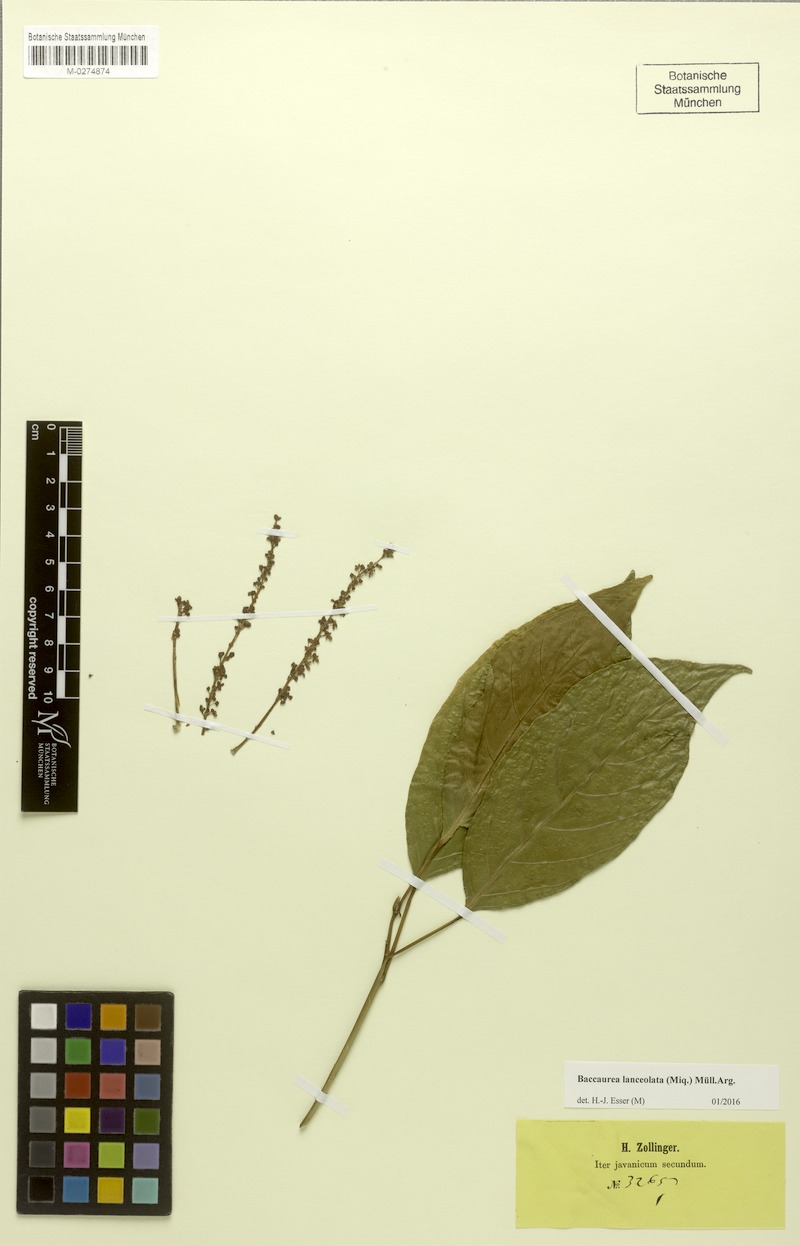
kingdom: Plantae
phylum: Tracheophyta
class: Magnoliopsida
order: Malpighiales
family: Phyllanthaceae
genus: Baccaurea
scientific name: Baccaurea lanceolata
